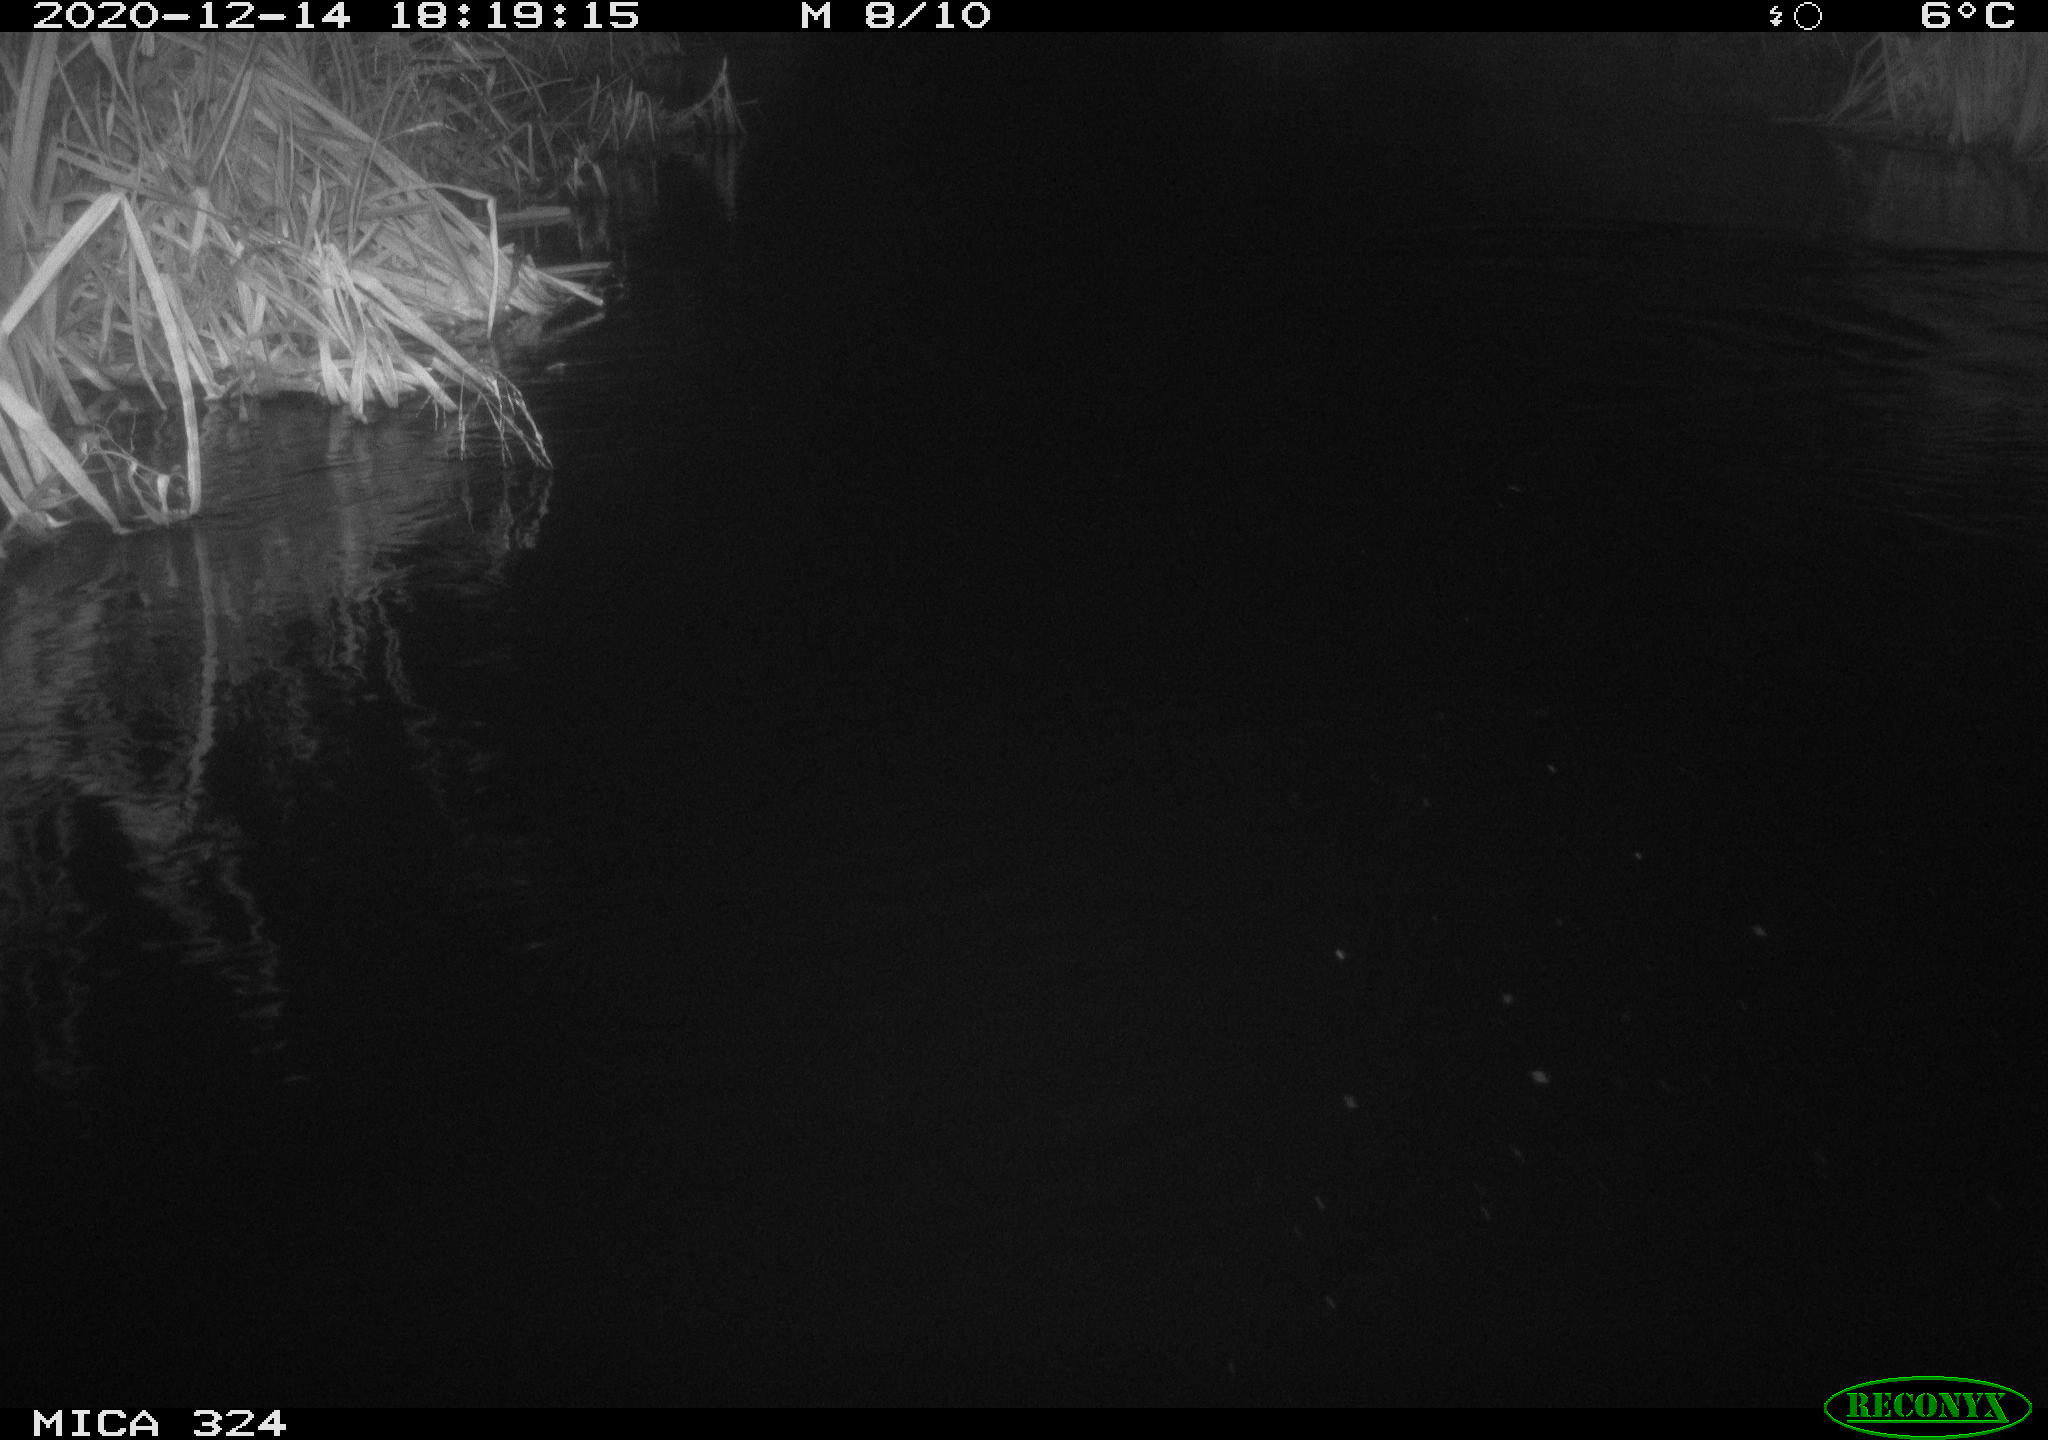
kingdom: Animalia
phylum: Chordata
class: Mammalia
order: Rodentia
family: Cricetidae
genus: Ondatra
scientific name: Ondatra zibethicus
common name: Muskrat
